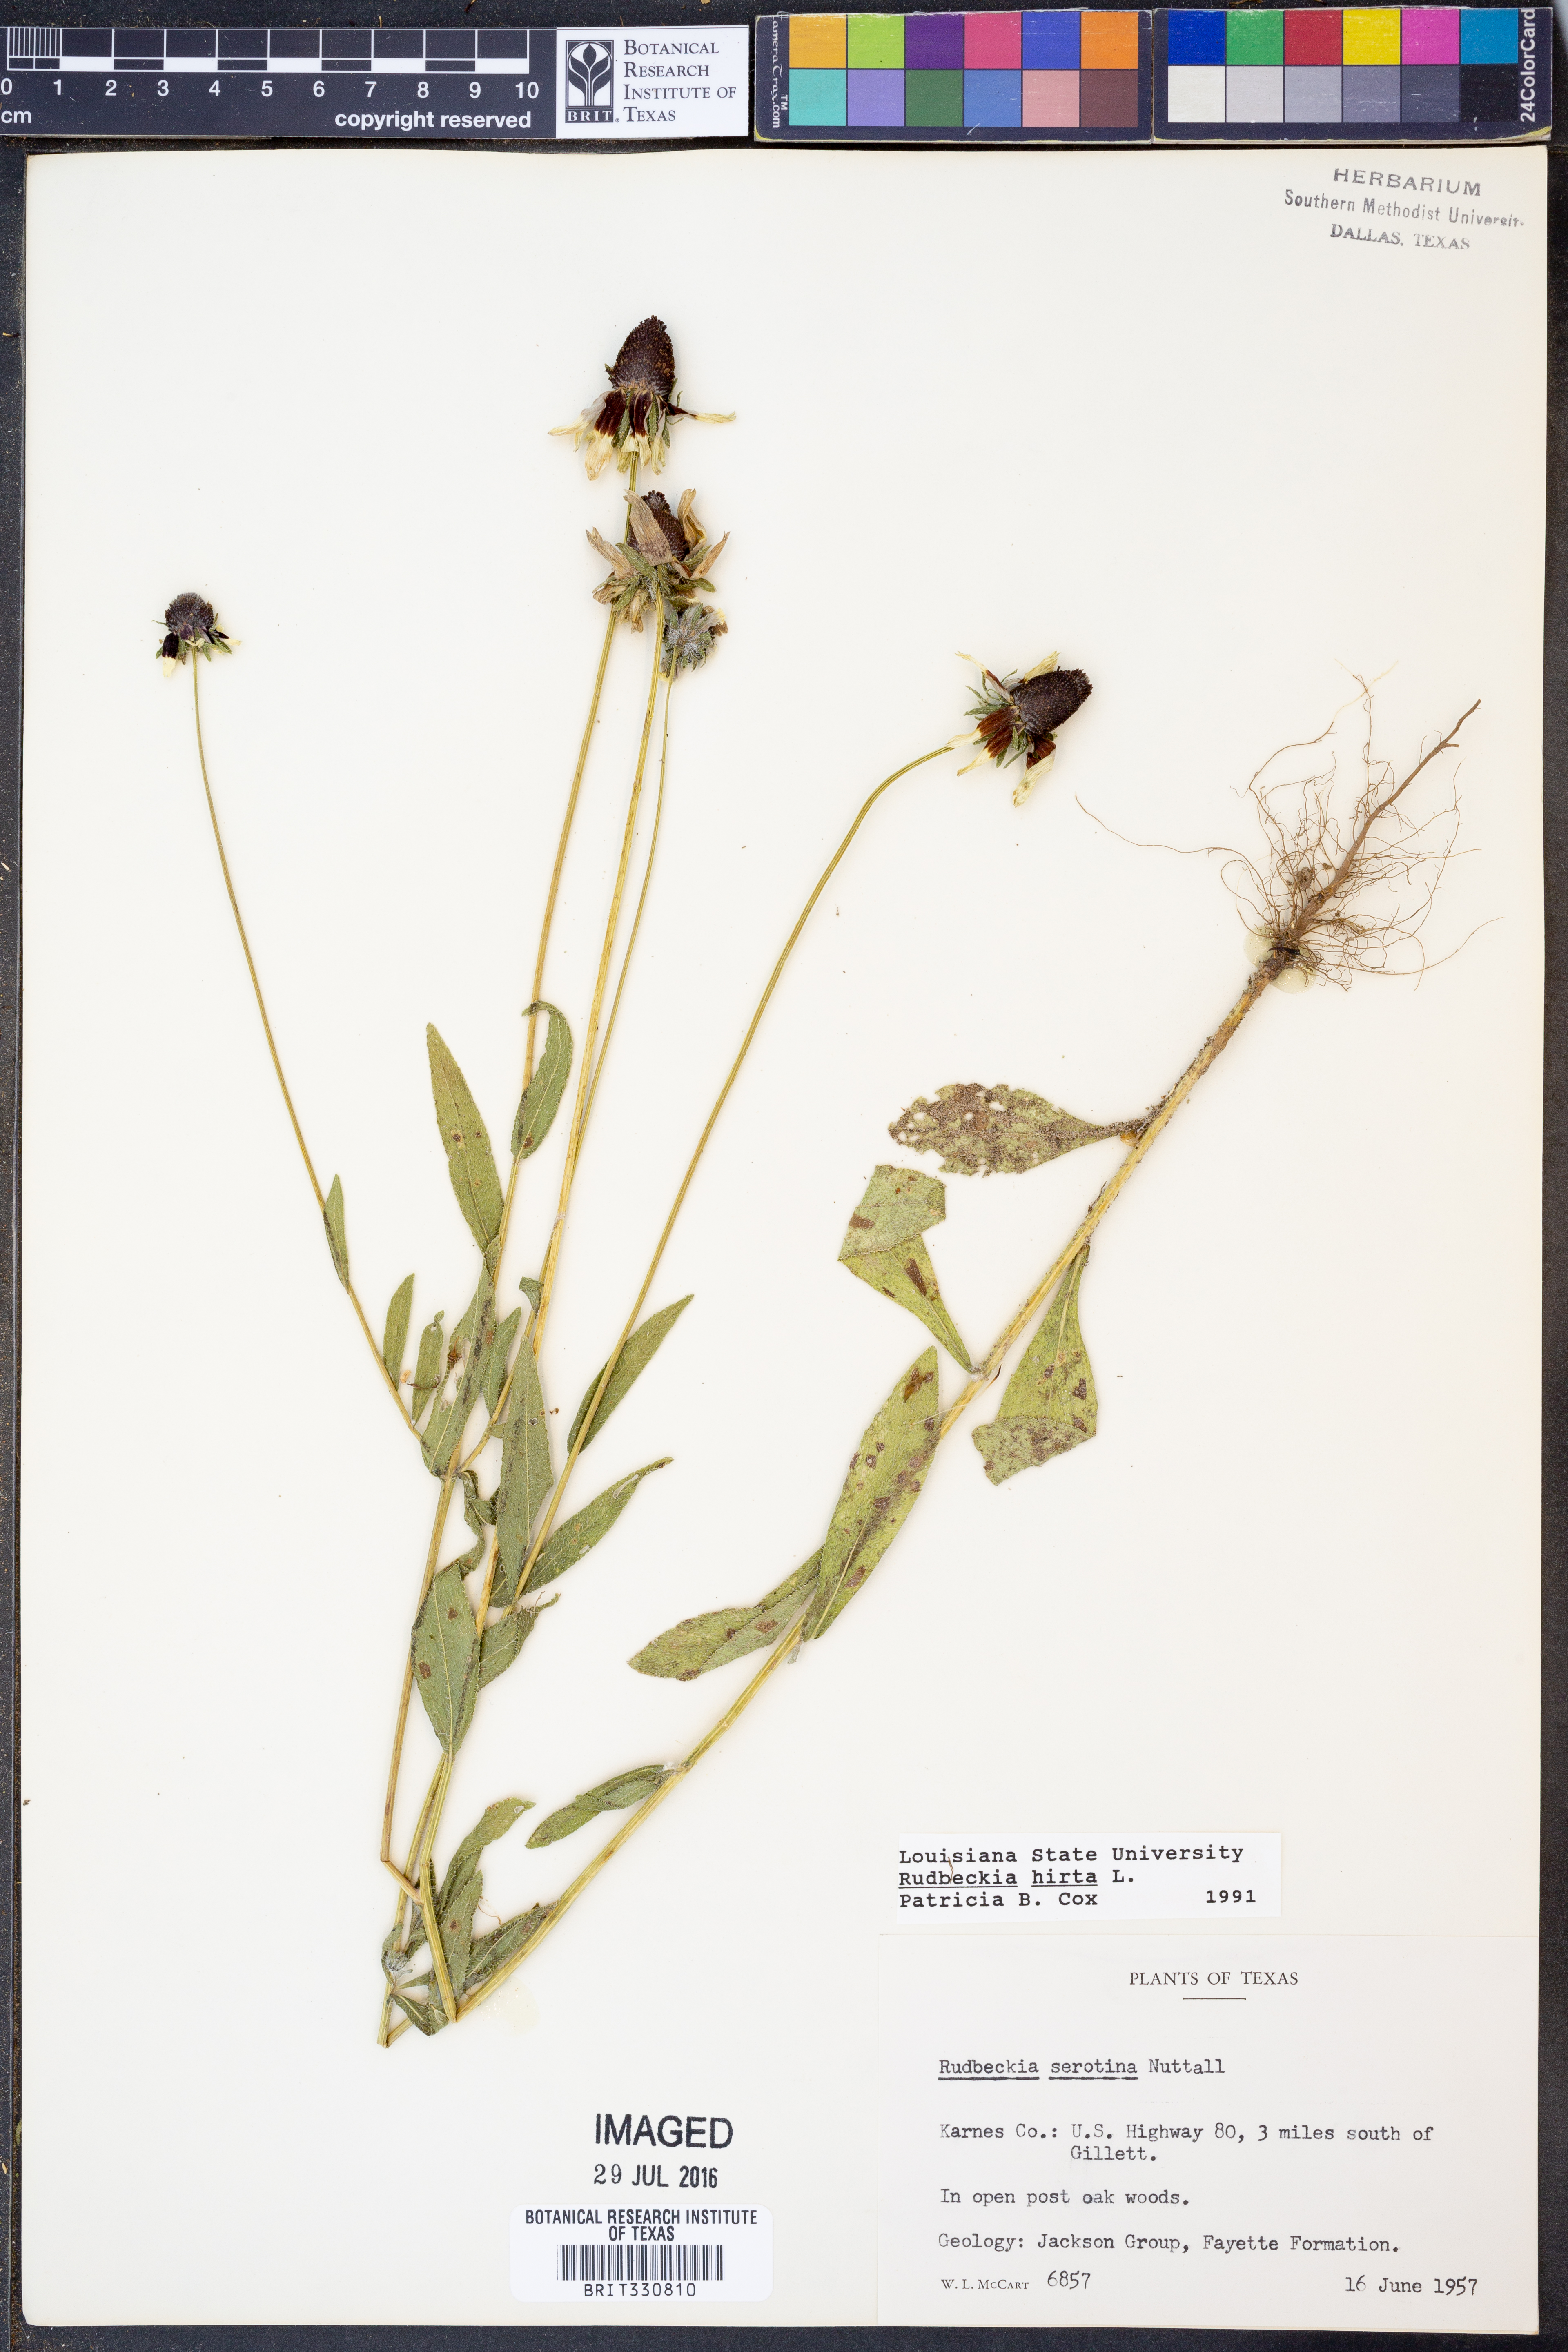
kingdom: Plantae
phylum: Tracheophyta
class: Magnoliopsida
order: Asterales
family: Asteraceae
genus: Rudbeckia
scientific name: Rudbeckia hirta
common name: Black-eyed-susan
